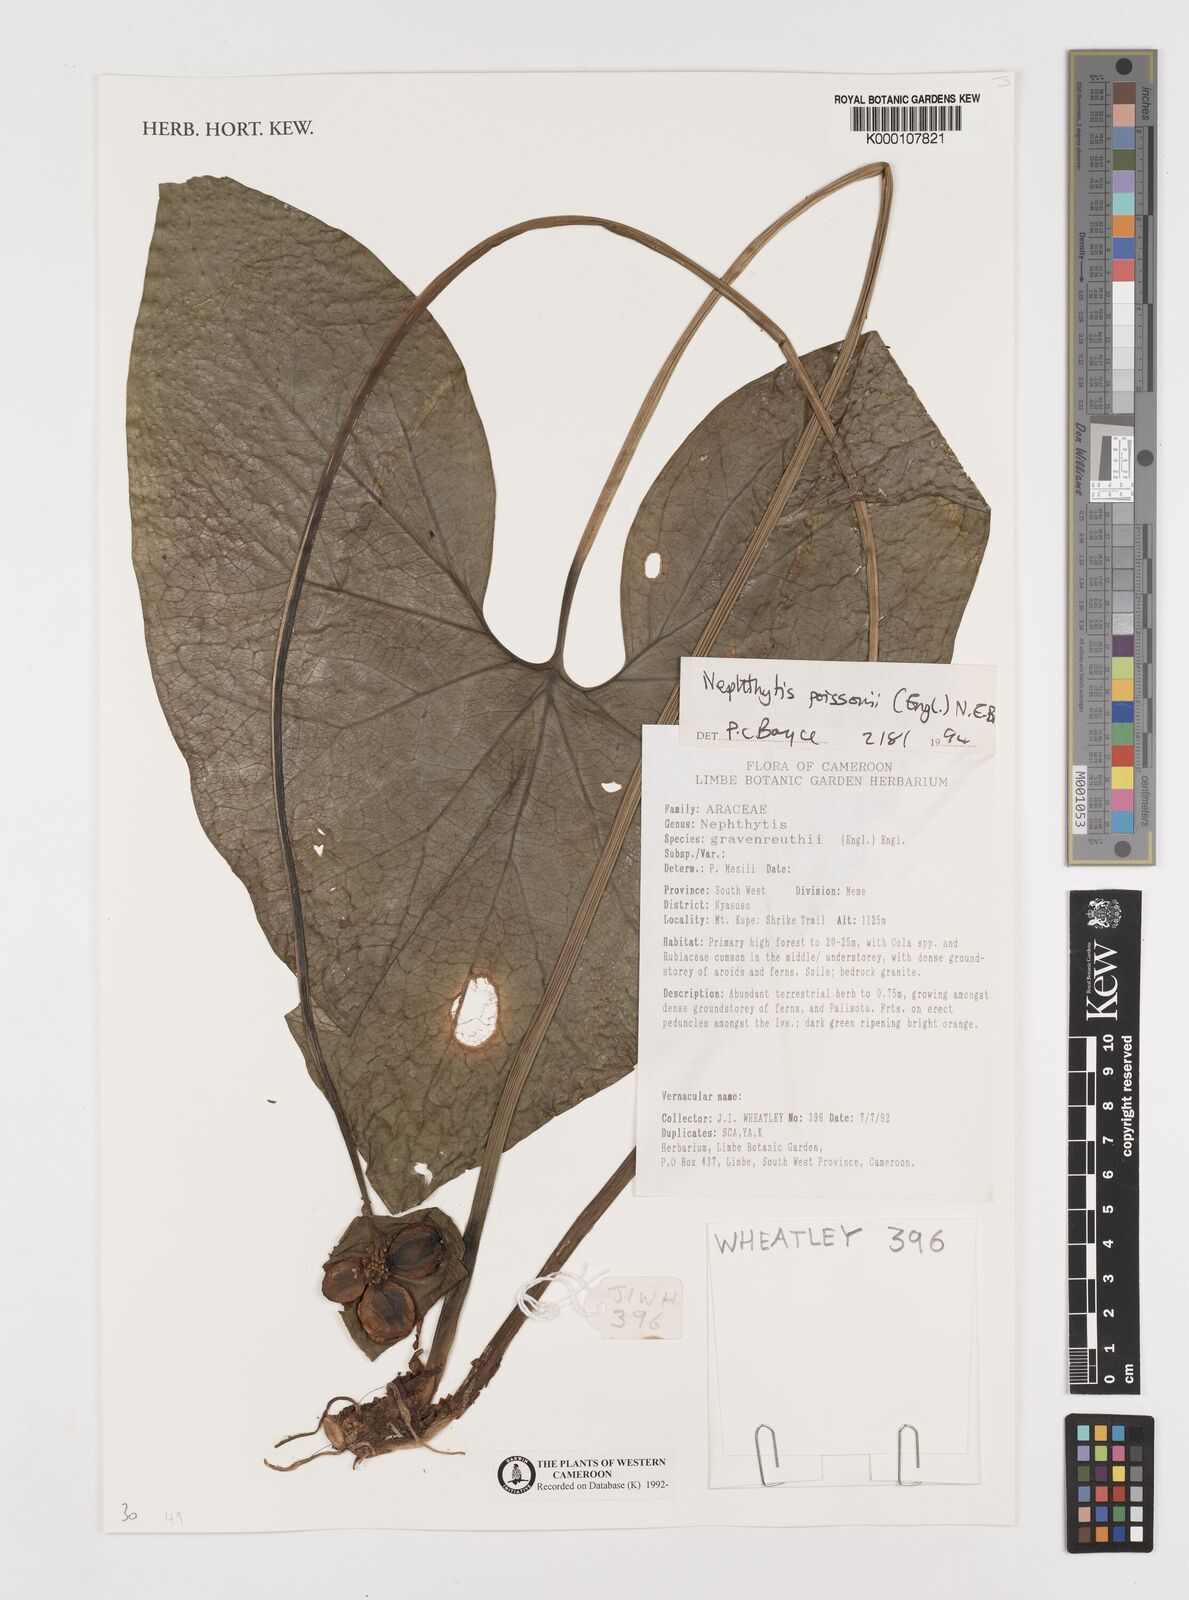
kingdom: Plantae
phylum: Tracheophyta
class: Liliopsida
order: Alismatales
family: Araceae
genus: Nephthytis
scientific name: Nephthytis poissonii
